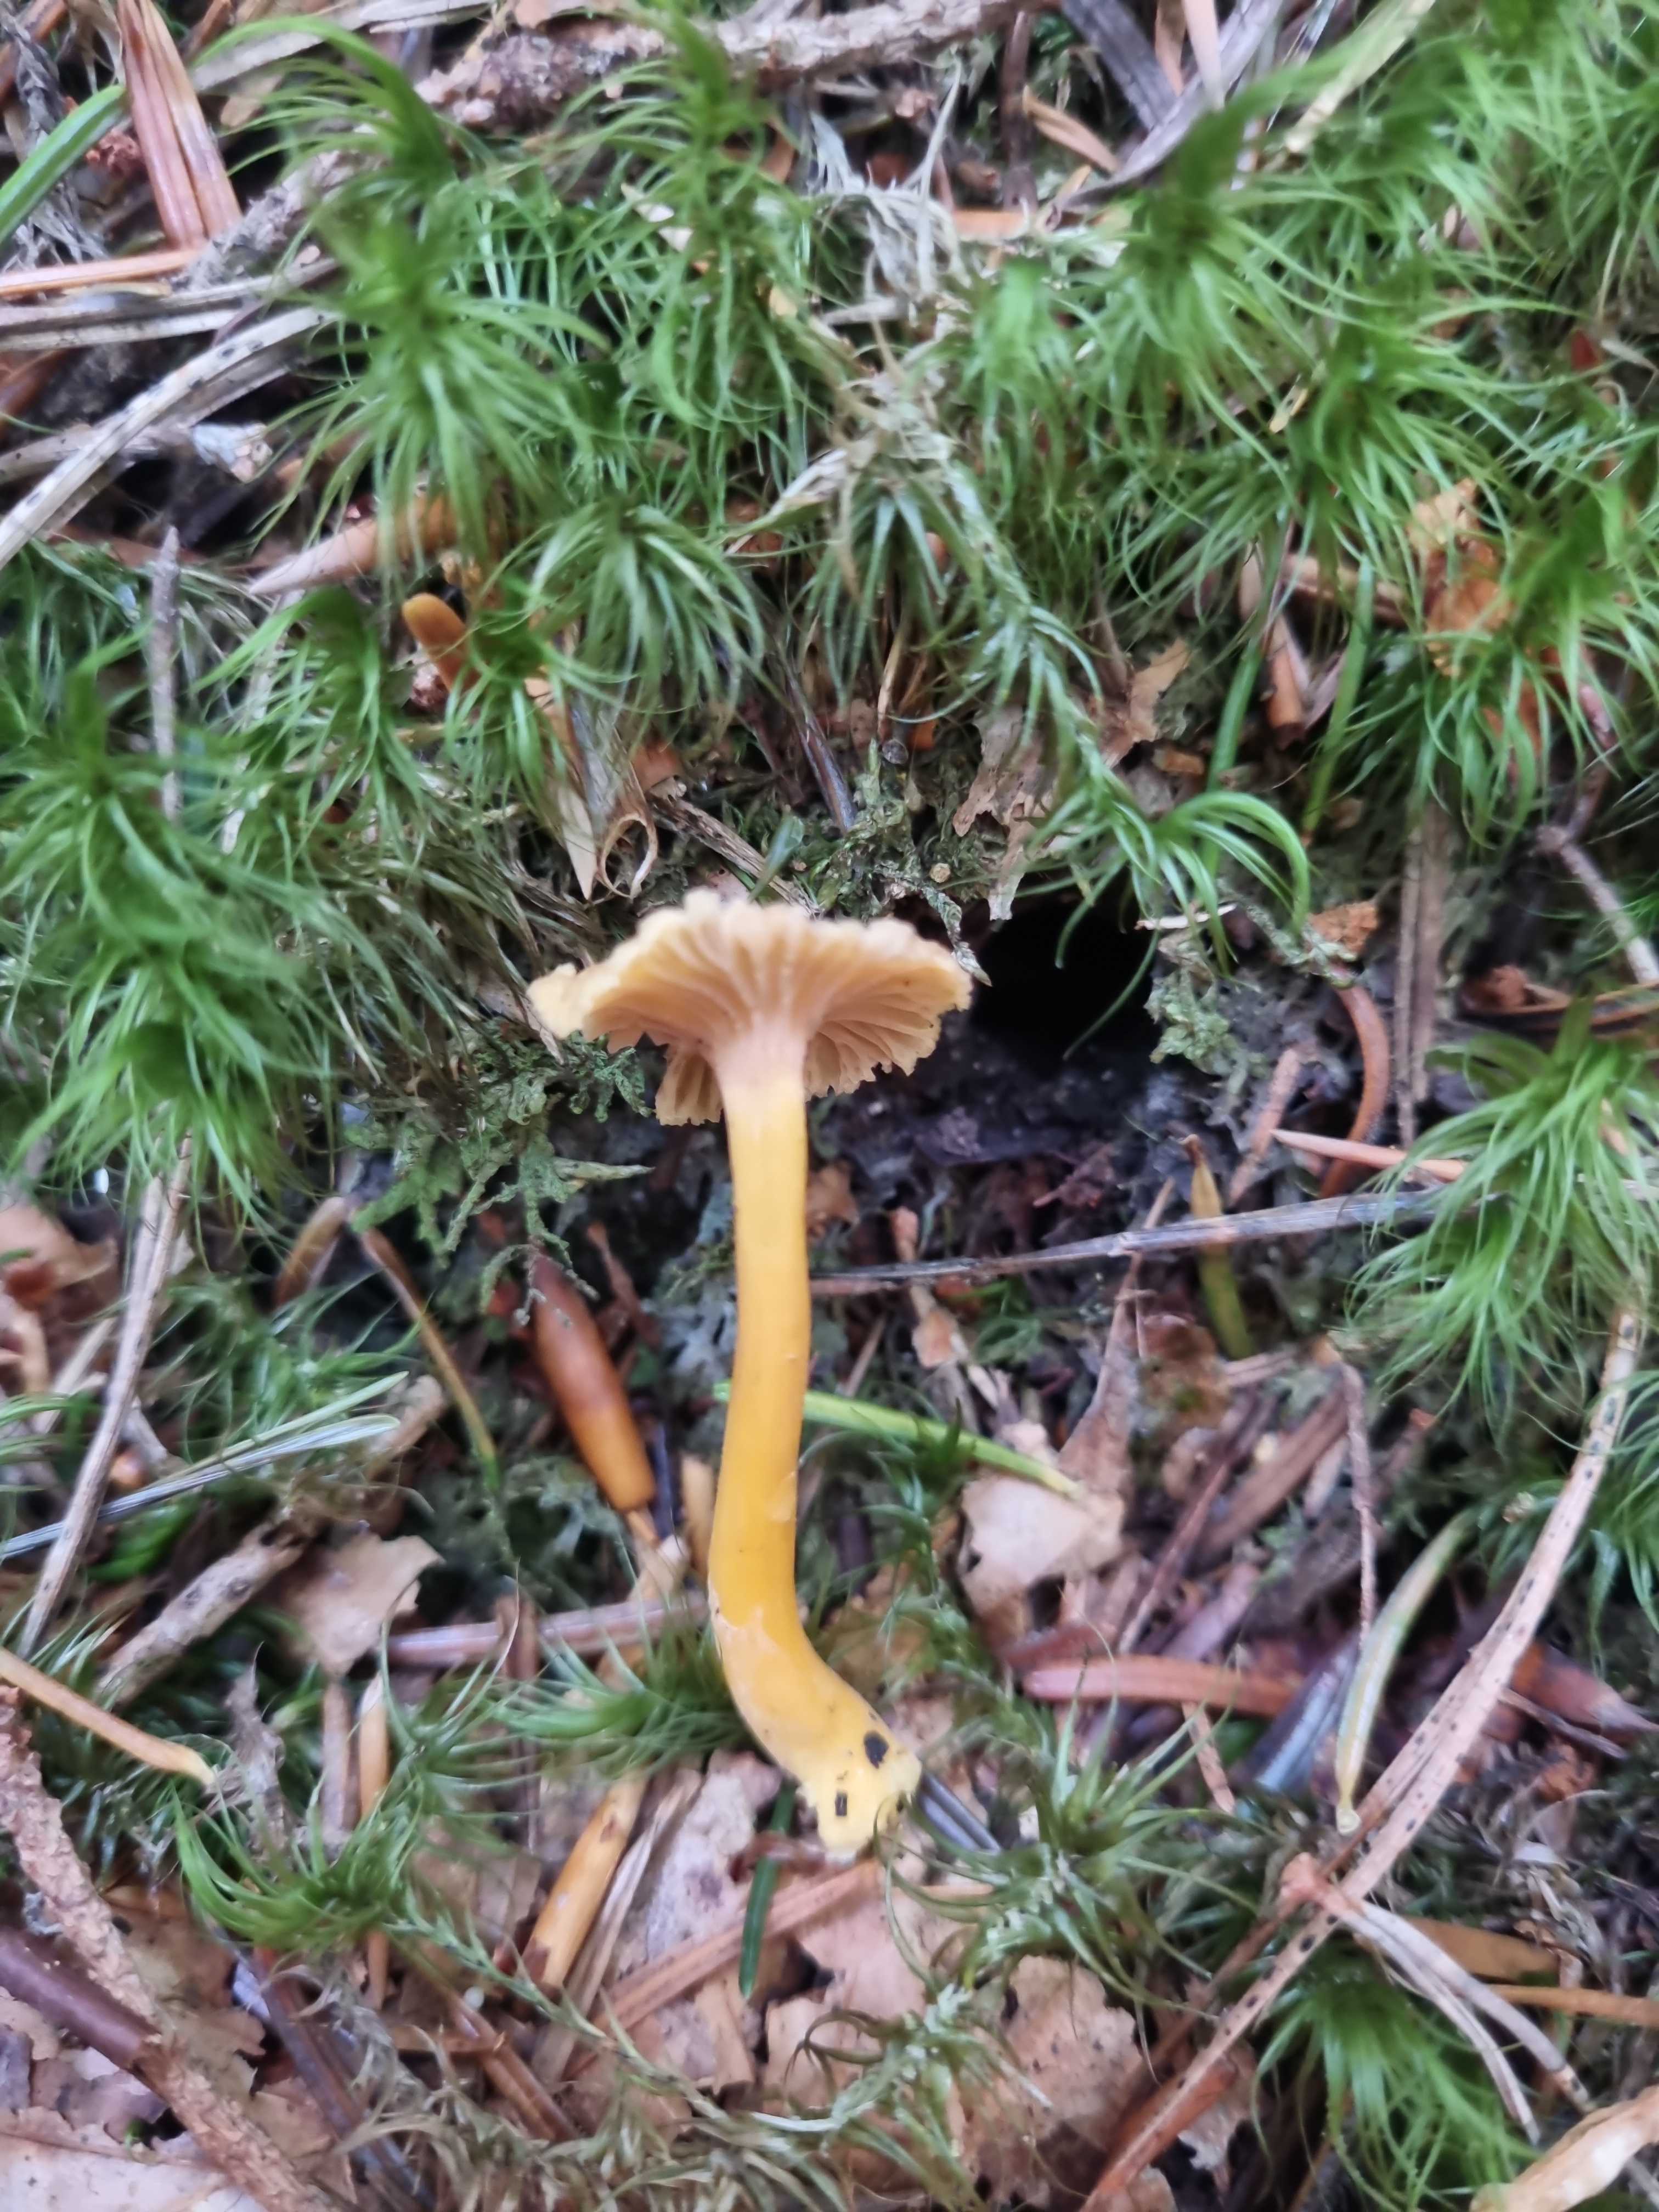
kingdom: Fungi
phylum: Basidiomycota
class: Agaricomycetes
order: Cantharellales
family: Hydnaceae
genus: Craterellus
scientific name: Craterellus tubaeformis
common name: tragt-kantarel
